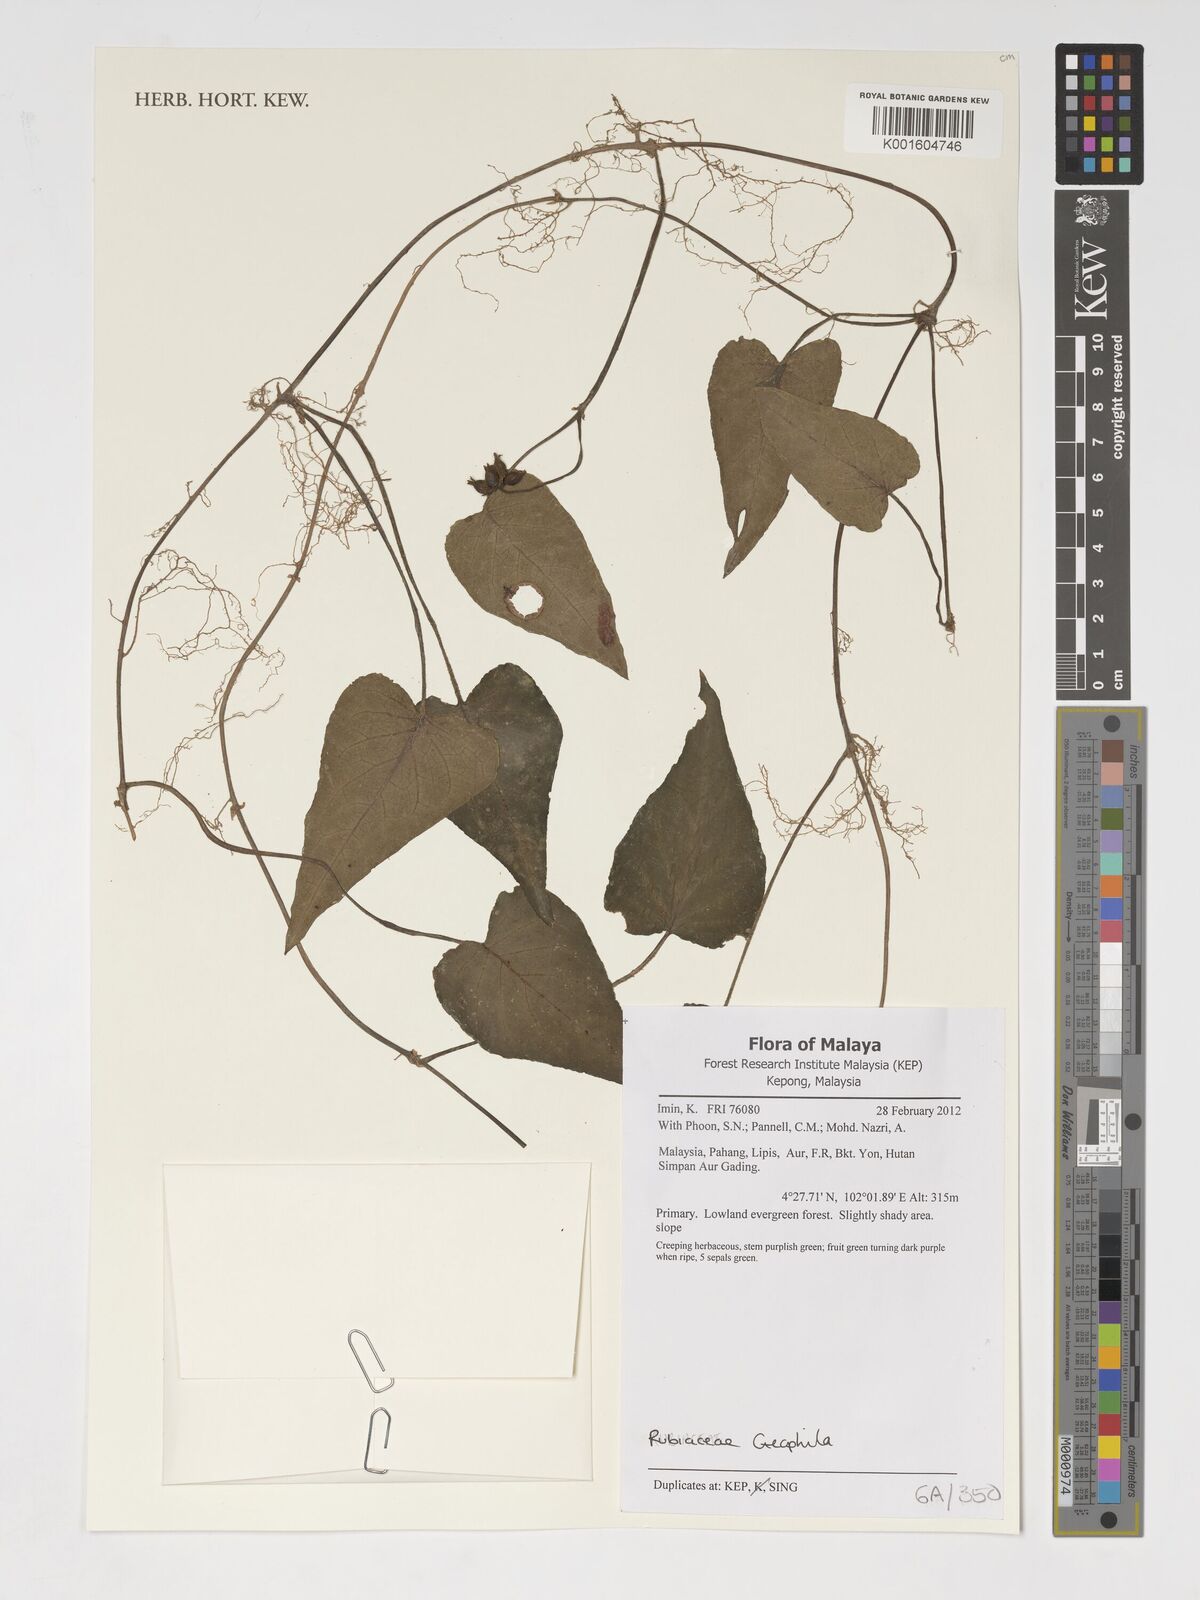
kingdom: Plantae
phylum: Tracheophyta
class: Magnoliopsida
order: Gentianales
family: Rubiaceae
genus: Geophila
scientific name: Geophila
